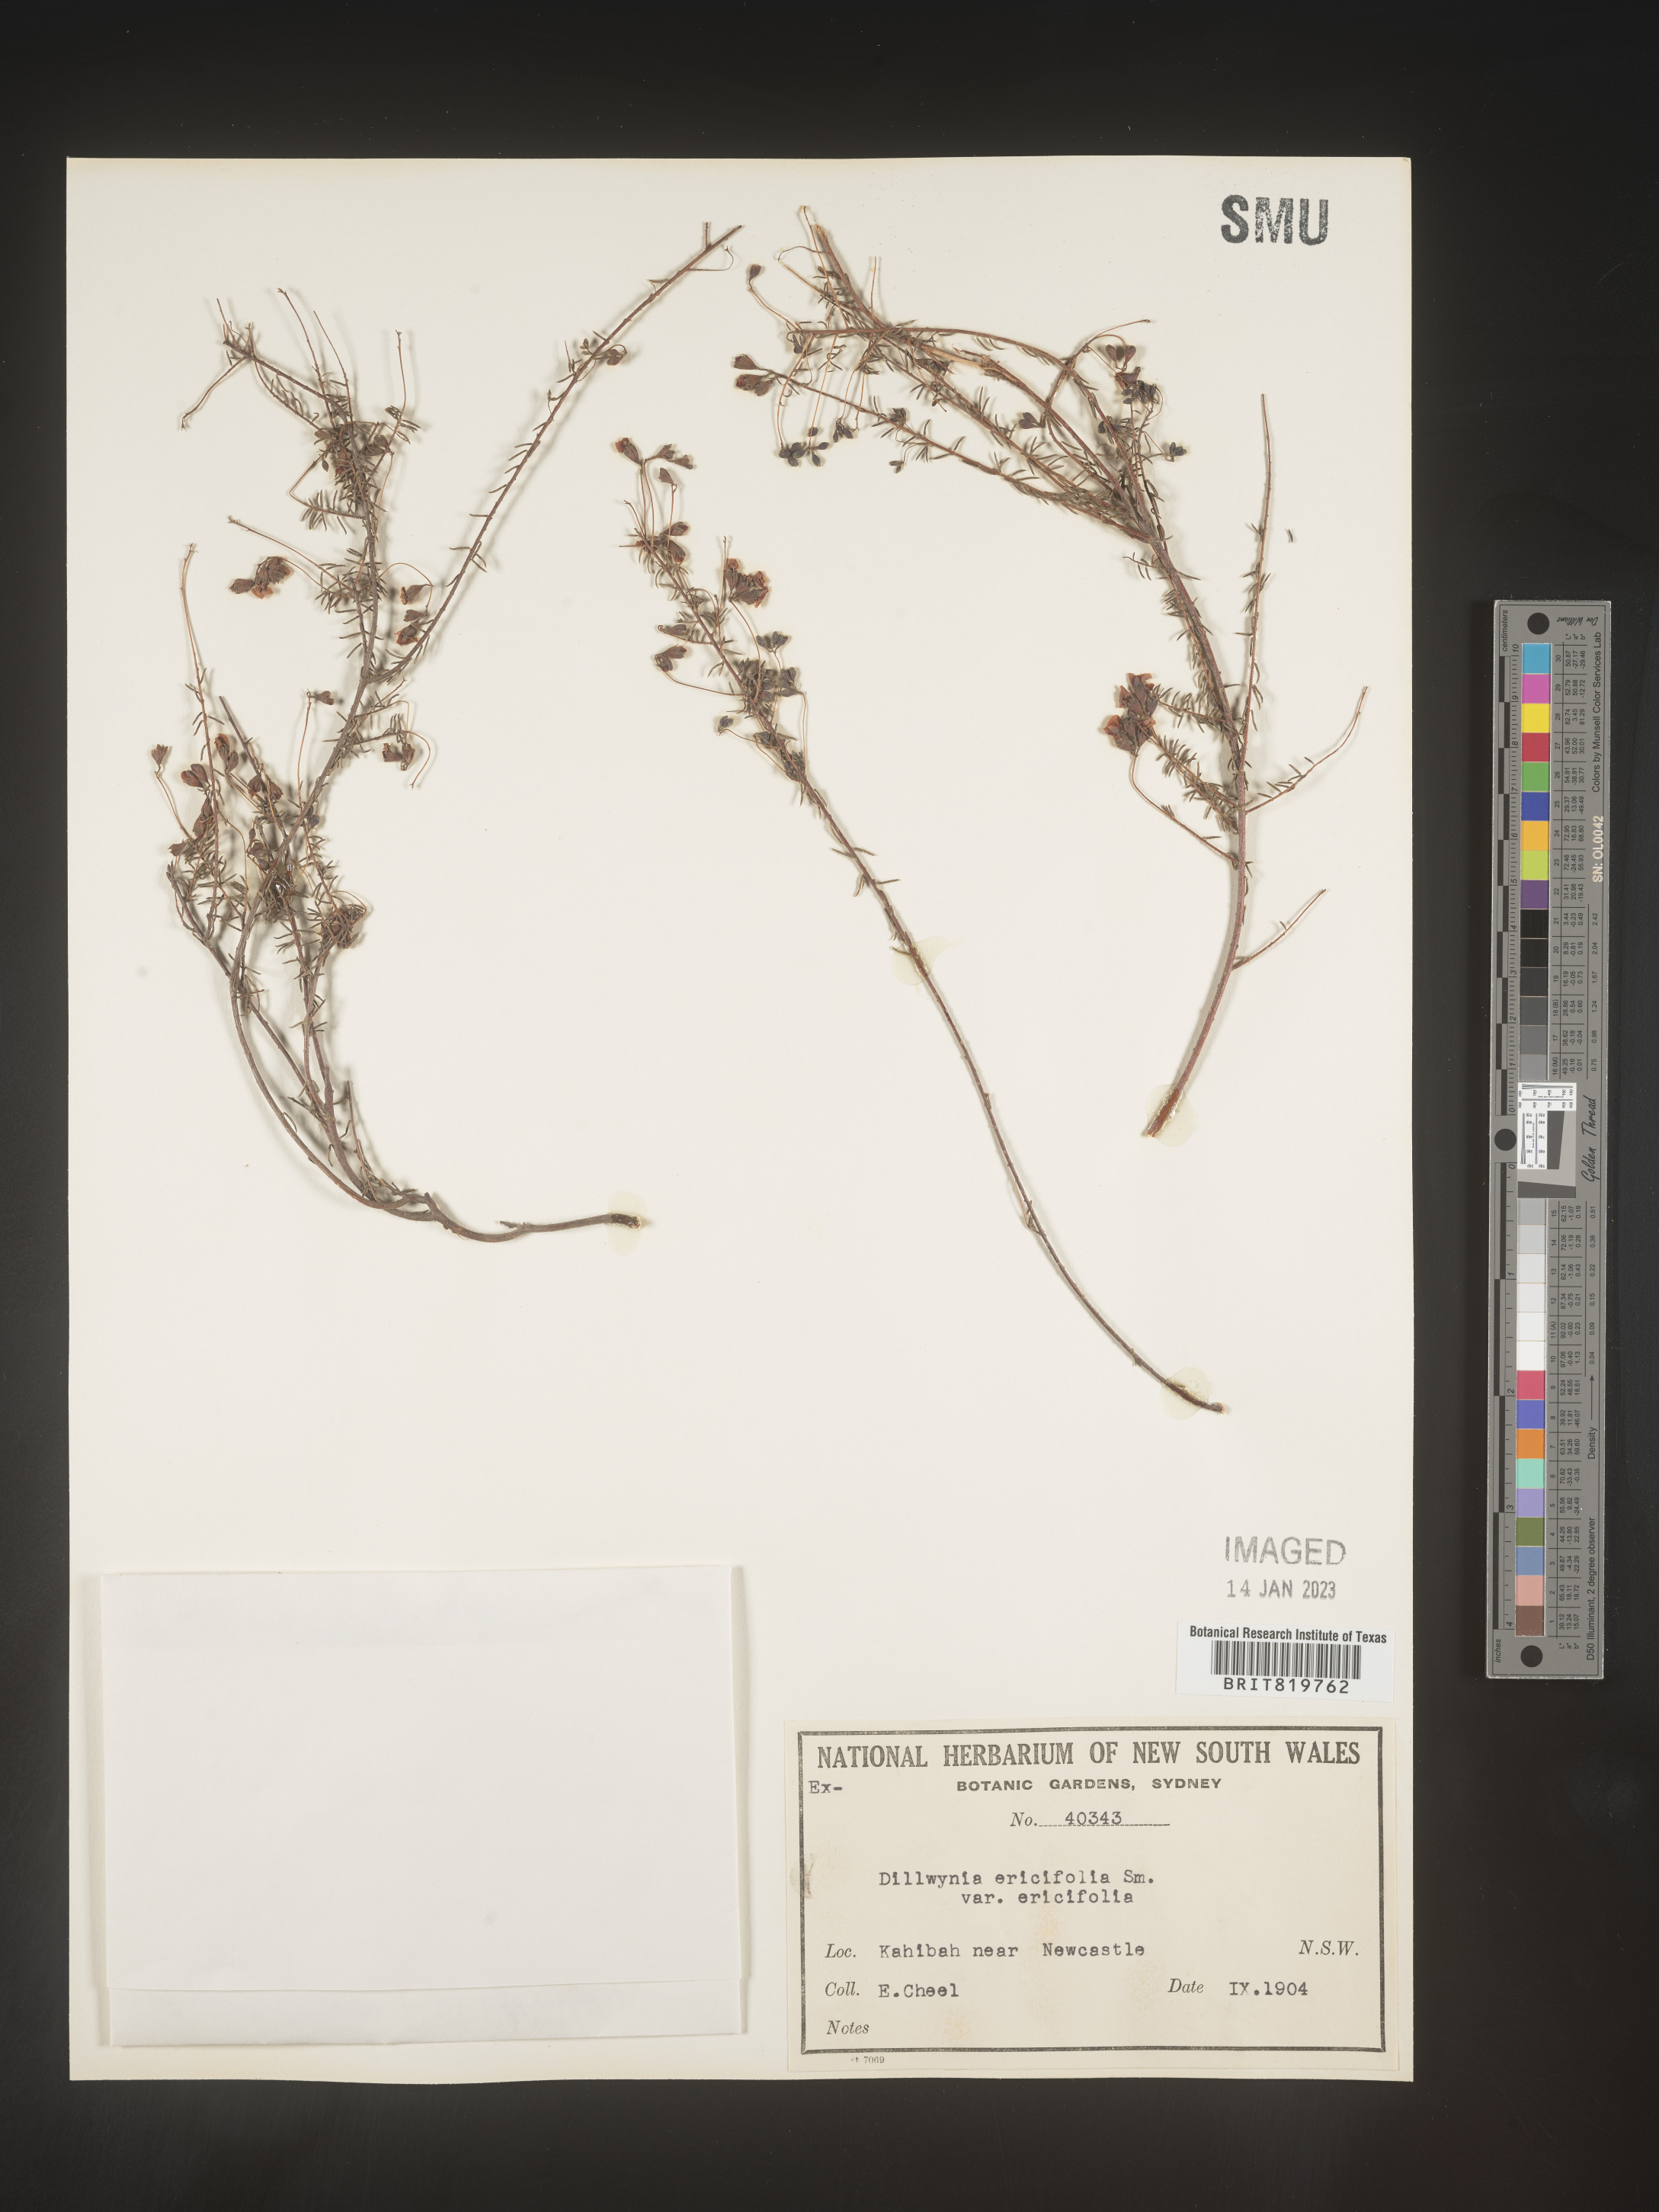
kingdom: Plantae
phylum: Tracheophyta
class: Magnoliopsida
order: Fabales
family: Fabaceae
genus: Dillwynia
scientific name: Dillwynia
